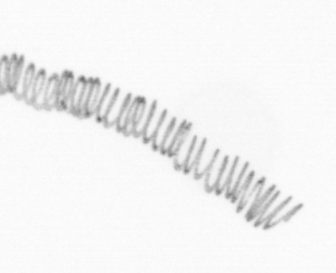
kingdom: Chromista
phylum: Ochrophyta
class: Bacillariophyceae
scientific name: Bacillariophyceae
